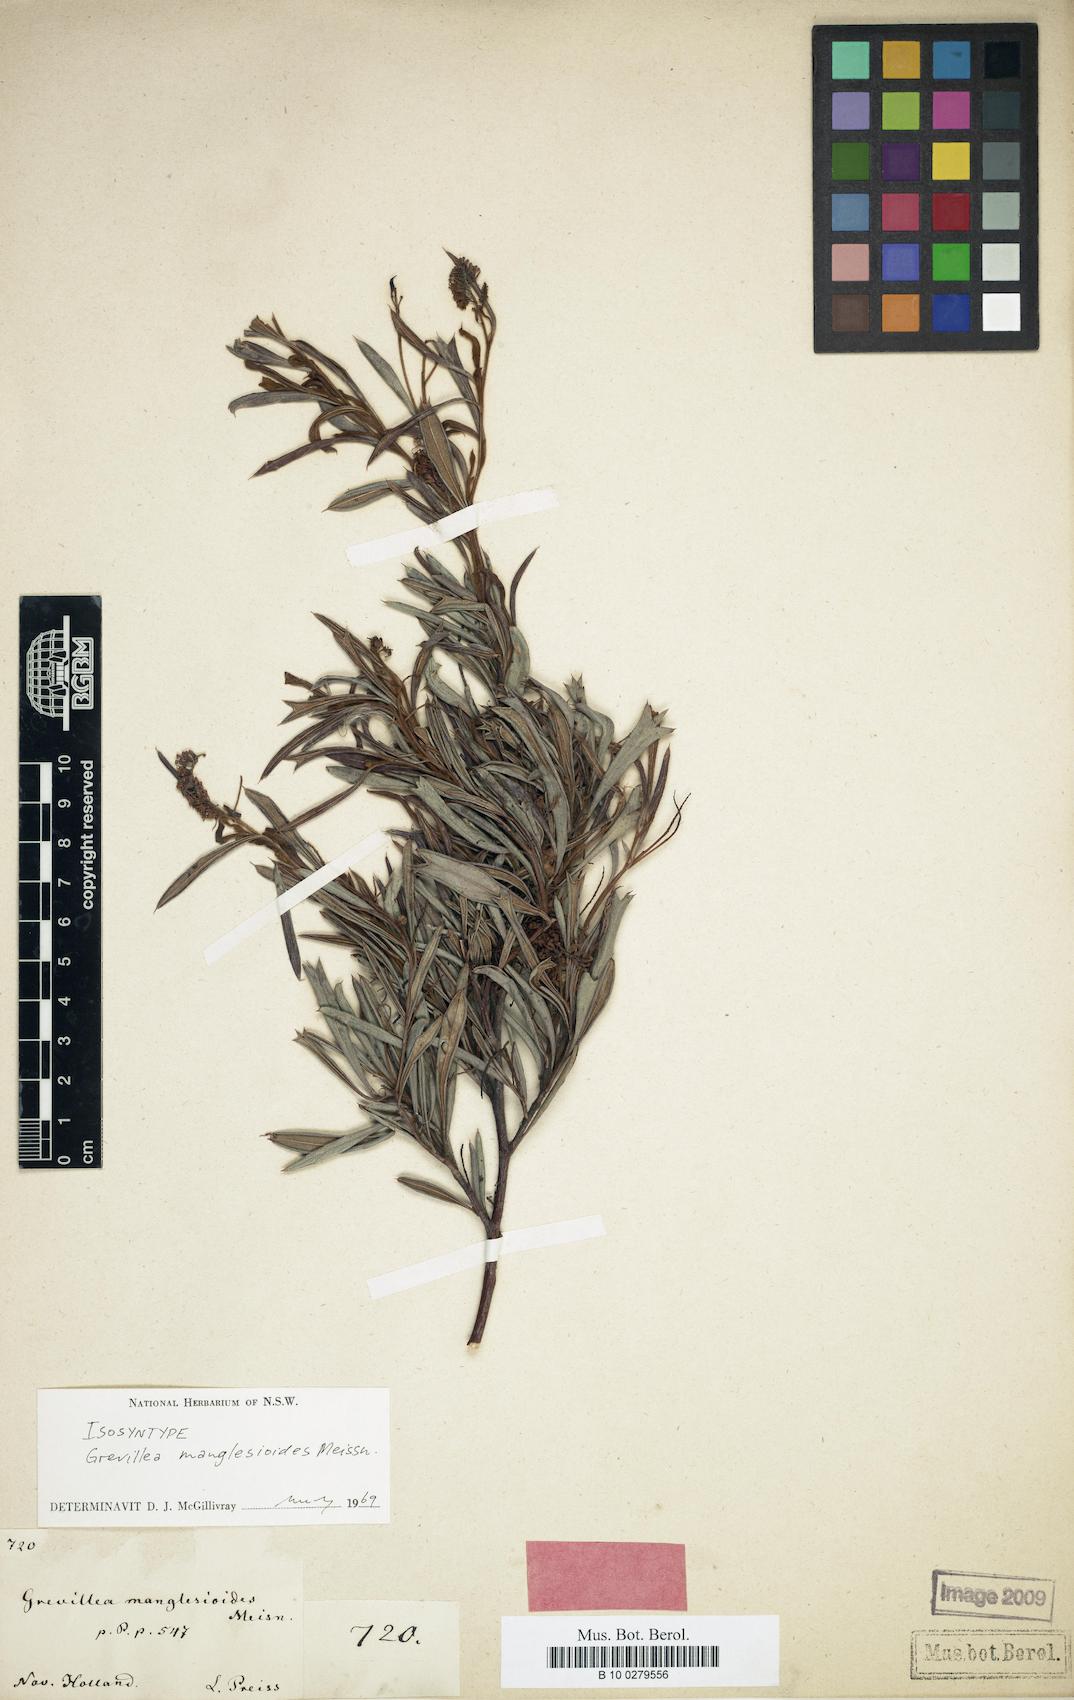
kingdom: Plantae
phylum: Tracheophyta
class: Magnoliopsida
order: Proteales
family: Proteaceae
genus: Grevillea
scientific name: Grevillea manglesioides
